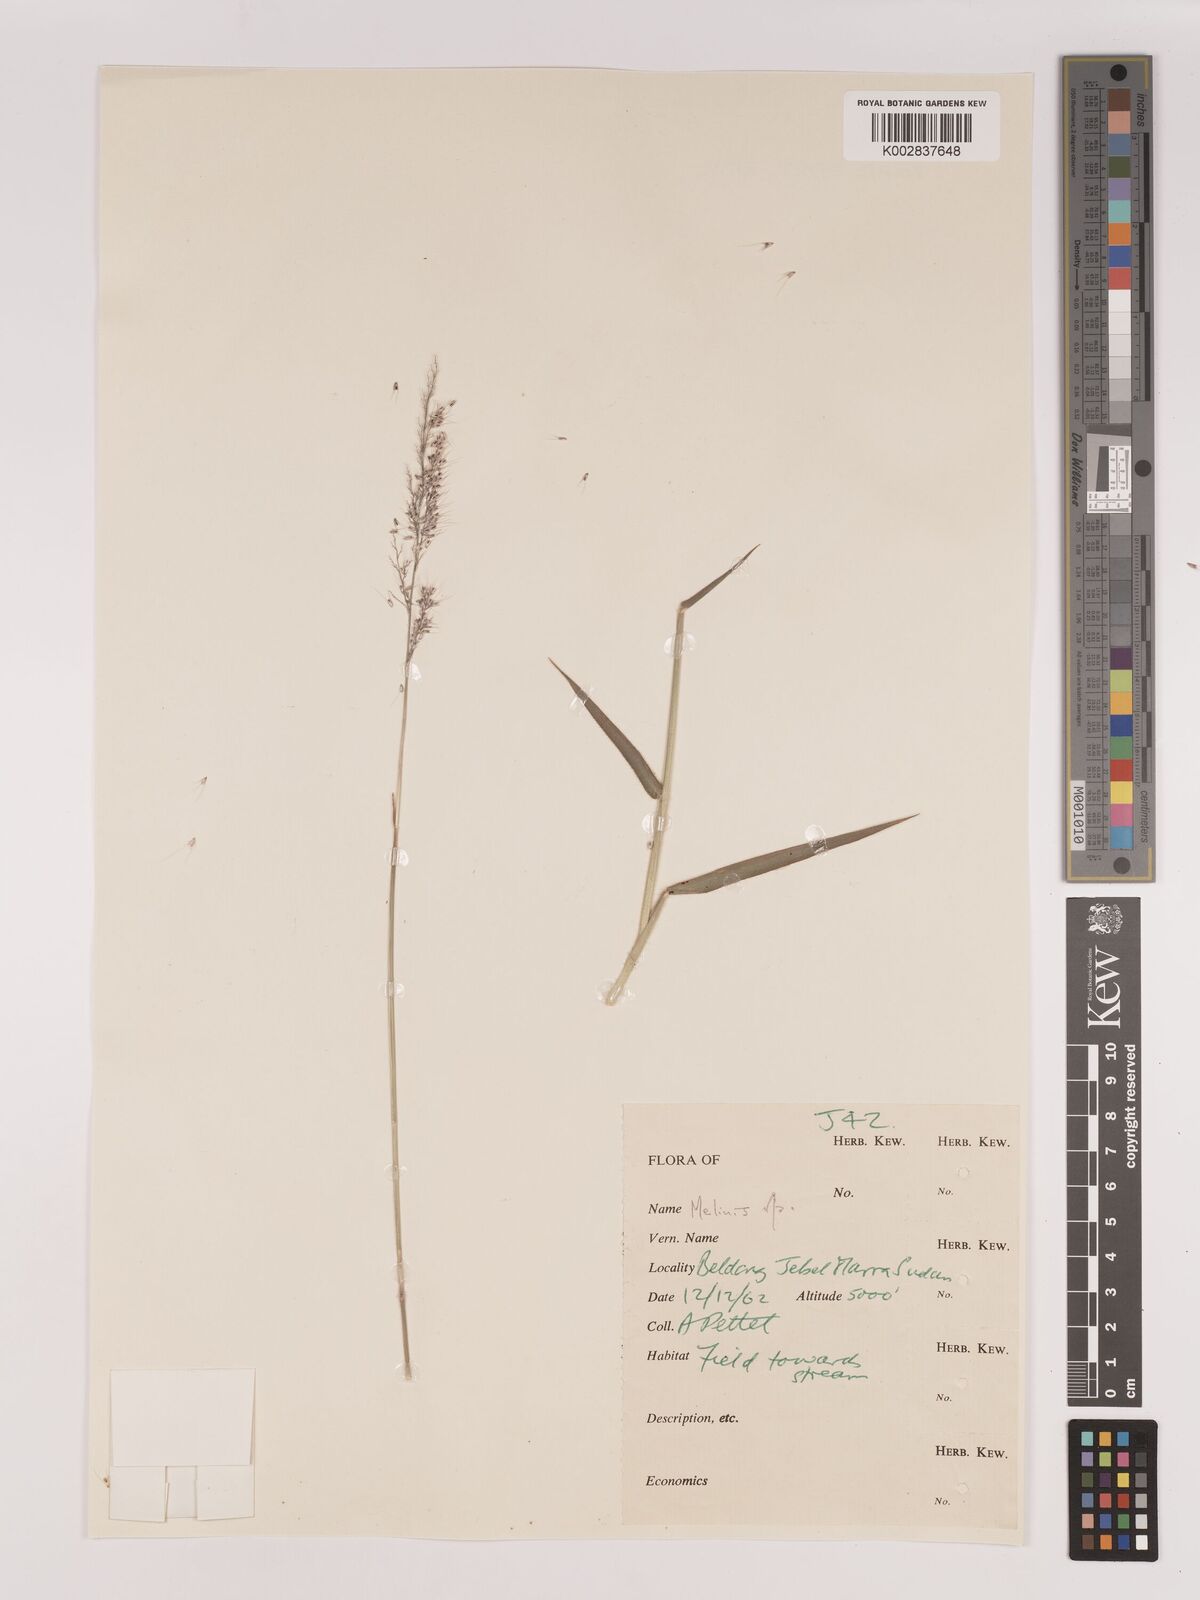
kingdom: Plantae
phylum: Tracheophyta
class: Liliopsida
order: Poales
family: Poaceae
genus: Melinis
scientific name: Melinis longiseta
